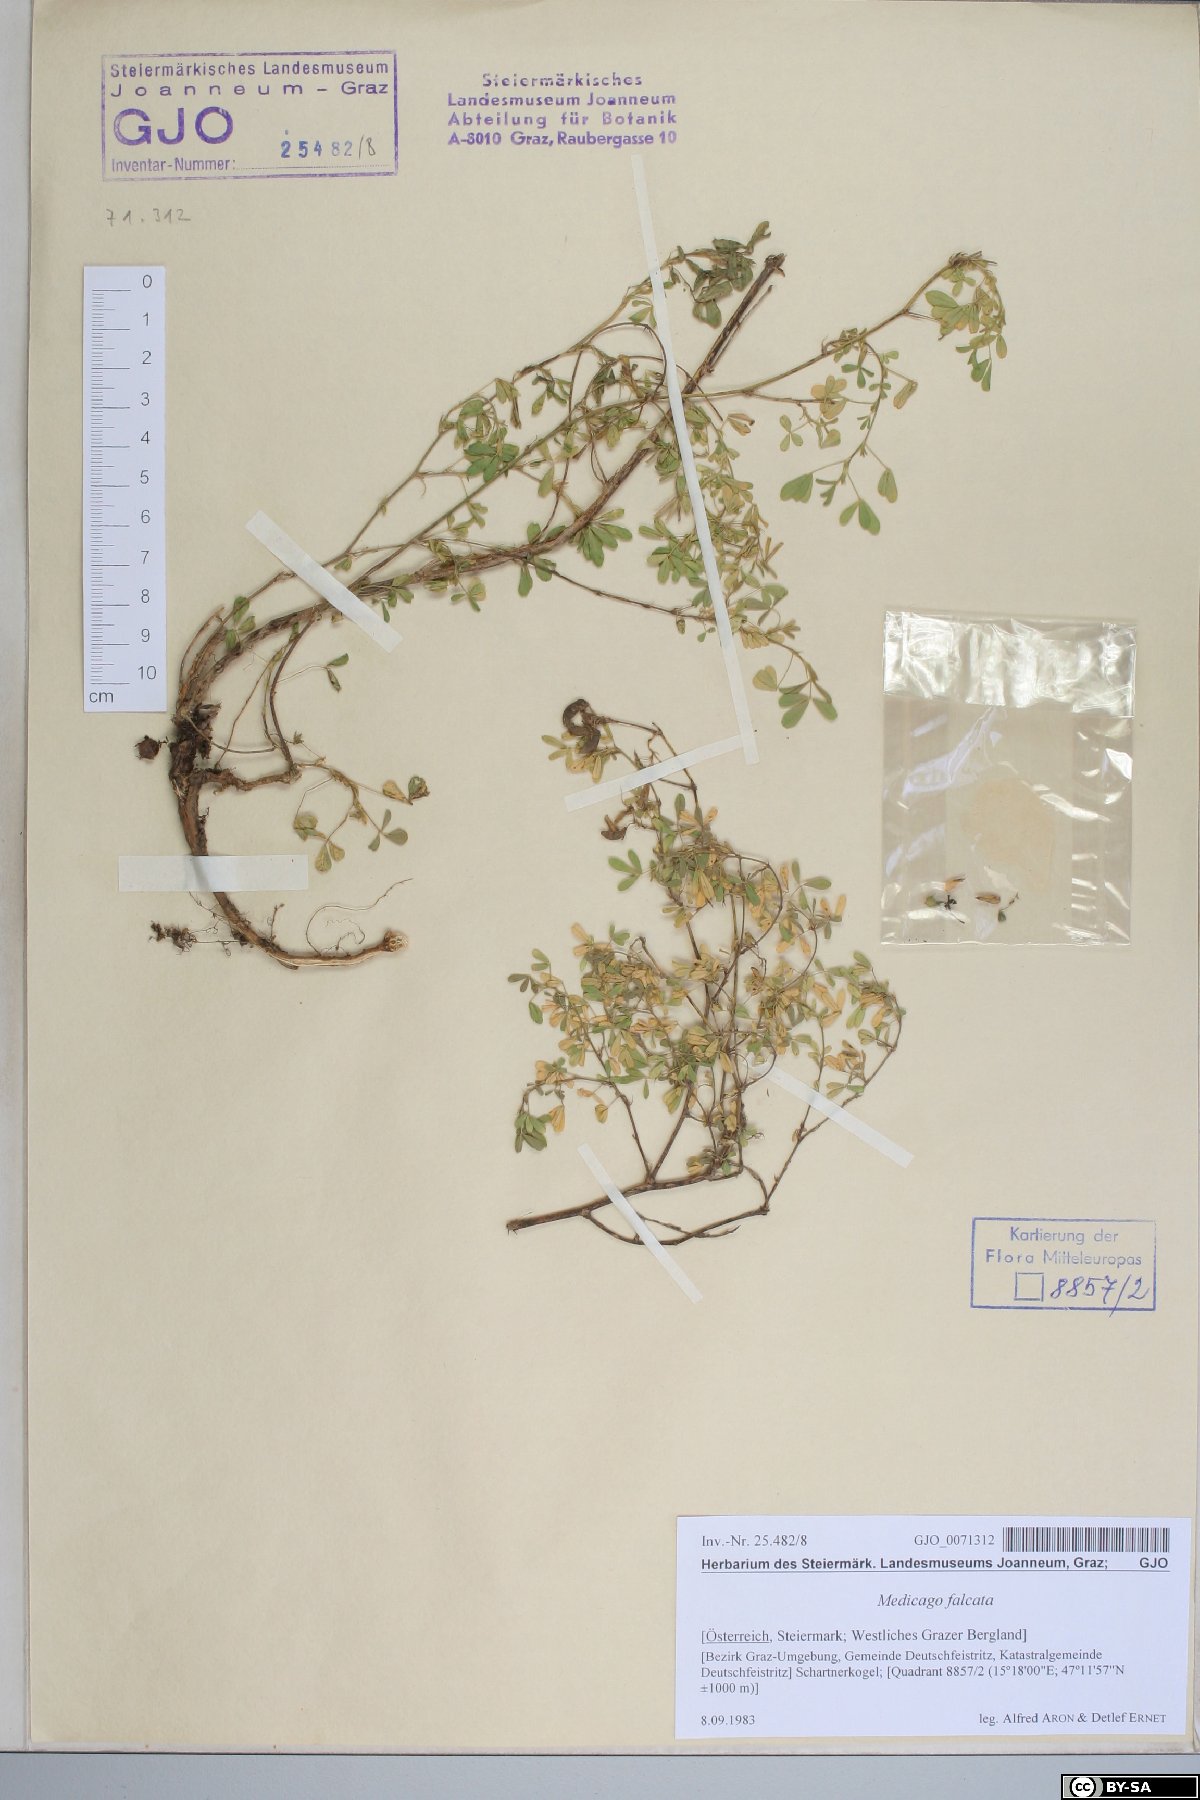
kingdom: Plantae
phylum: Tracheophyta
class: Magnoliopsida
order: Fabales
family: Fabaceae
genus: Medicago
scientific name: Medicago falcata
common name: Sickle medick
